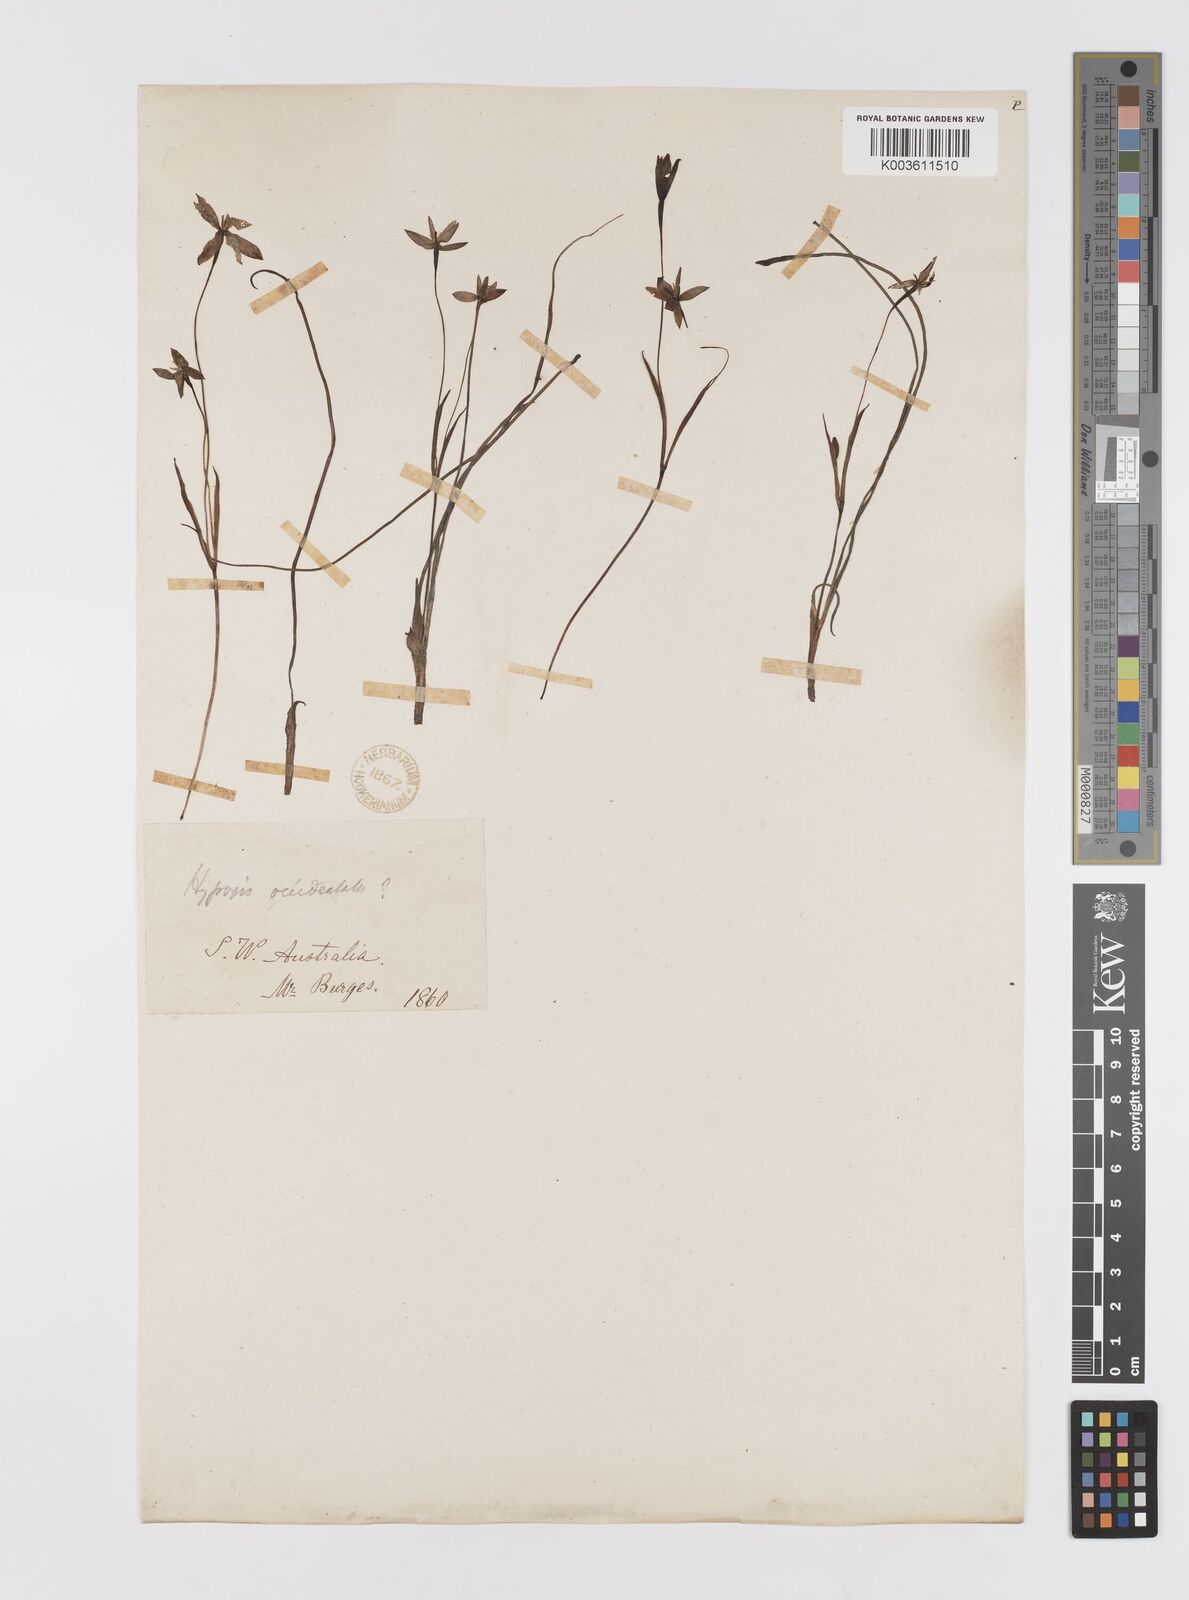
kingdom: Plantae
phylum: Tracheophyta
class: Liliopsida
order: Asparagales
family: Hypoxidaceae
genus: Pauridia
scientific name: Pauridia occidentalis
